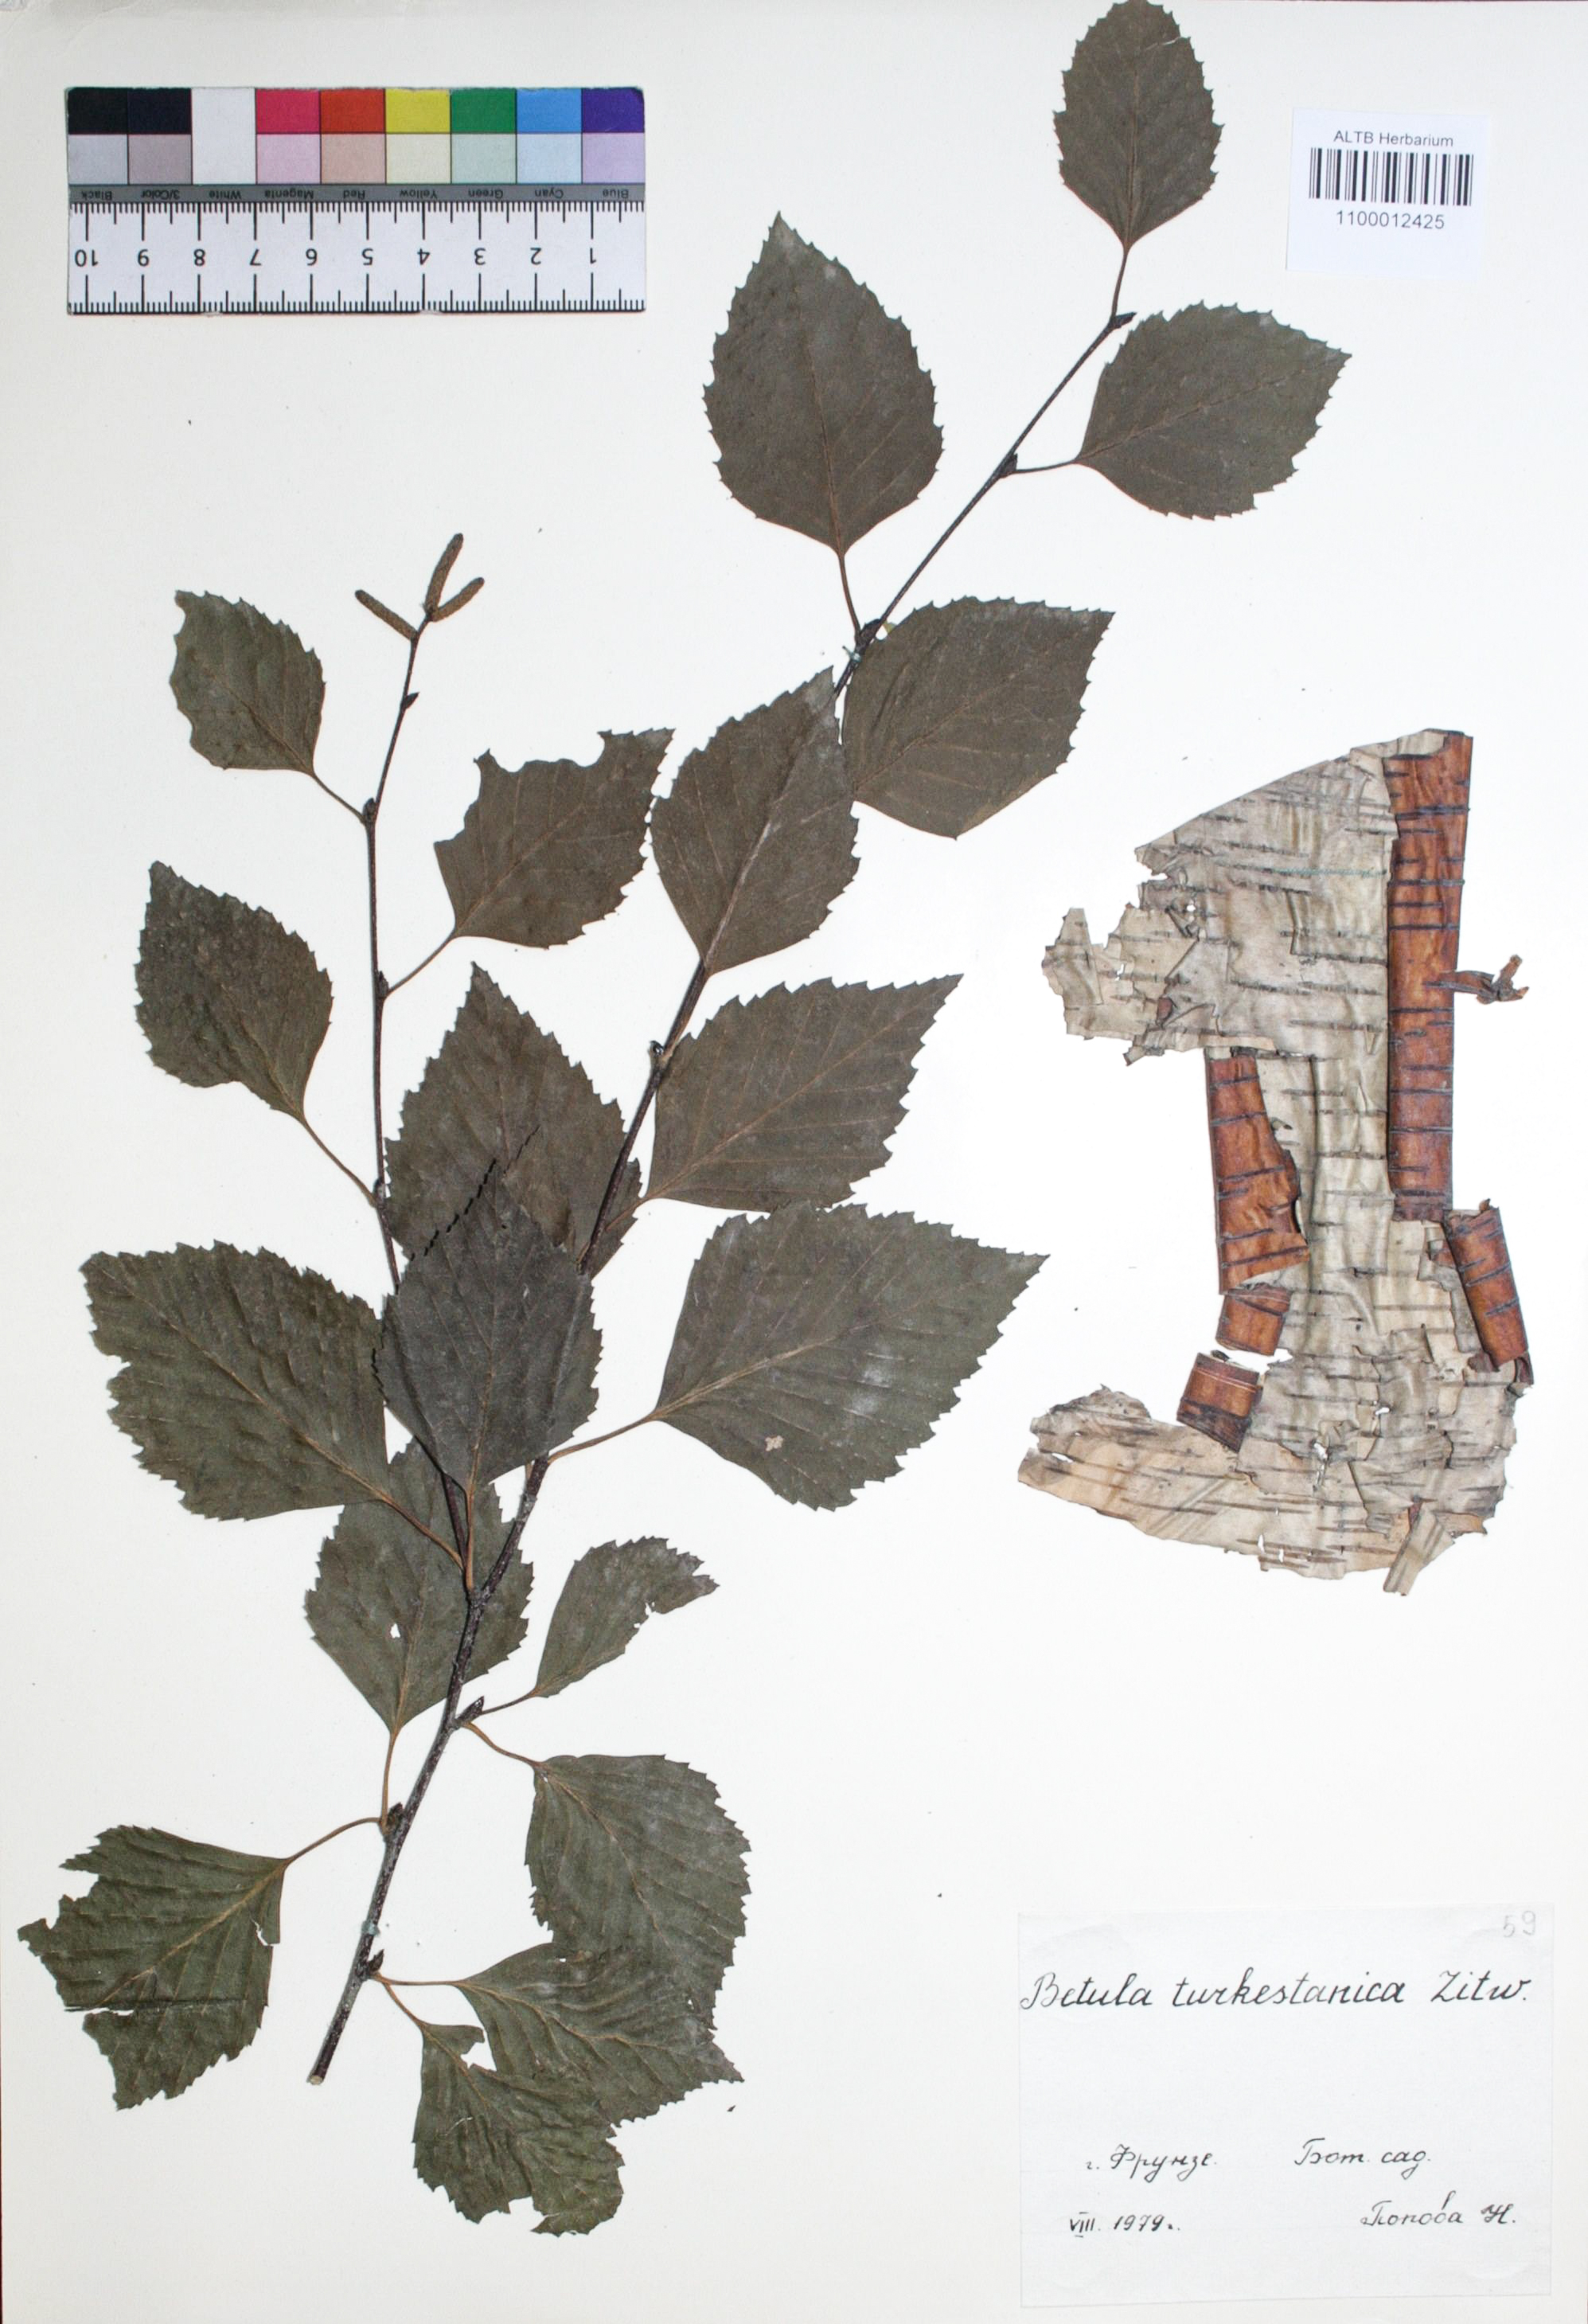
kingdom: Plantae
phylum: Tracheophyta
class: Magnoliopsida
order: Fagales
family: Betulaceae
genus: Betula
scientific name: Betula tianschanica
